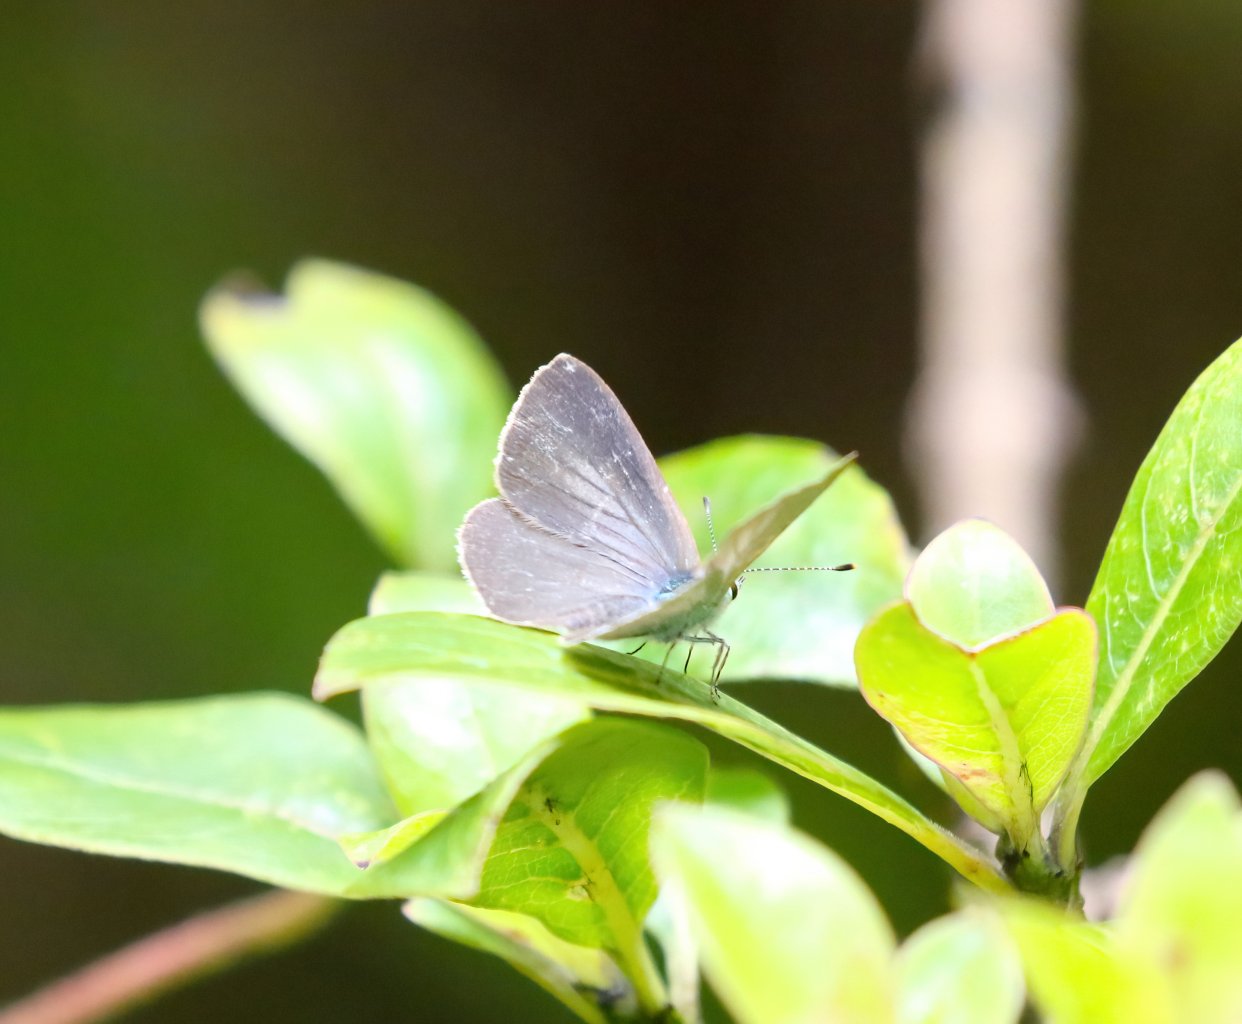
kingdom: Animalia
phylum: Arthropoda
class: Insecta
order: Lepidoptera
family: Lycaenidae
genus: Udara
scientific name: Udara blackburni
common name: Hawaiian Blue
